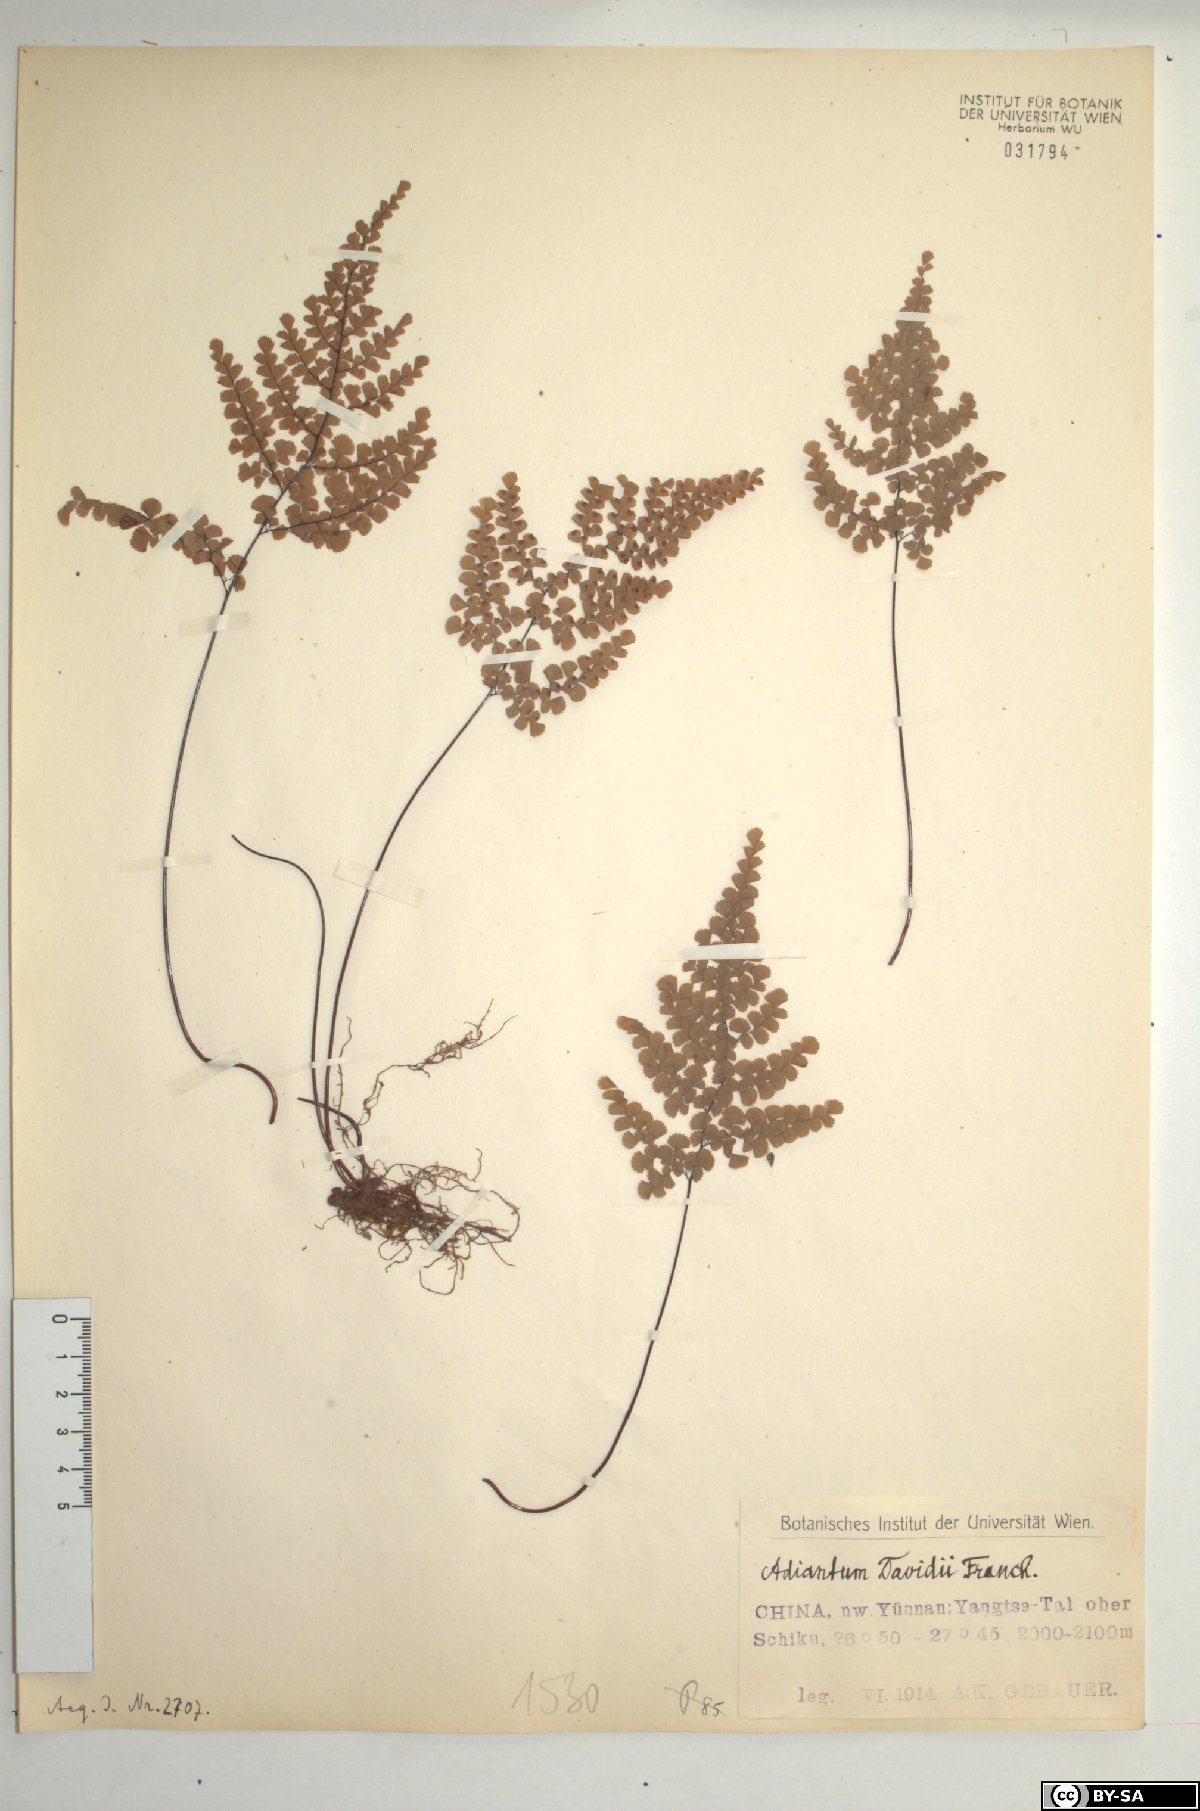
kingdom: Plantae
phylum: Tracheophyta
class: Polypodiopsida
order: Polypodiales
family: Pteridaceae
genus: Adiantum
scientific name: Adiantum davidii
